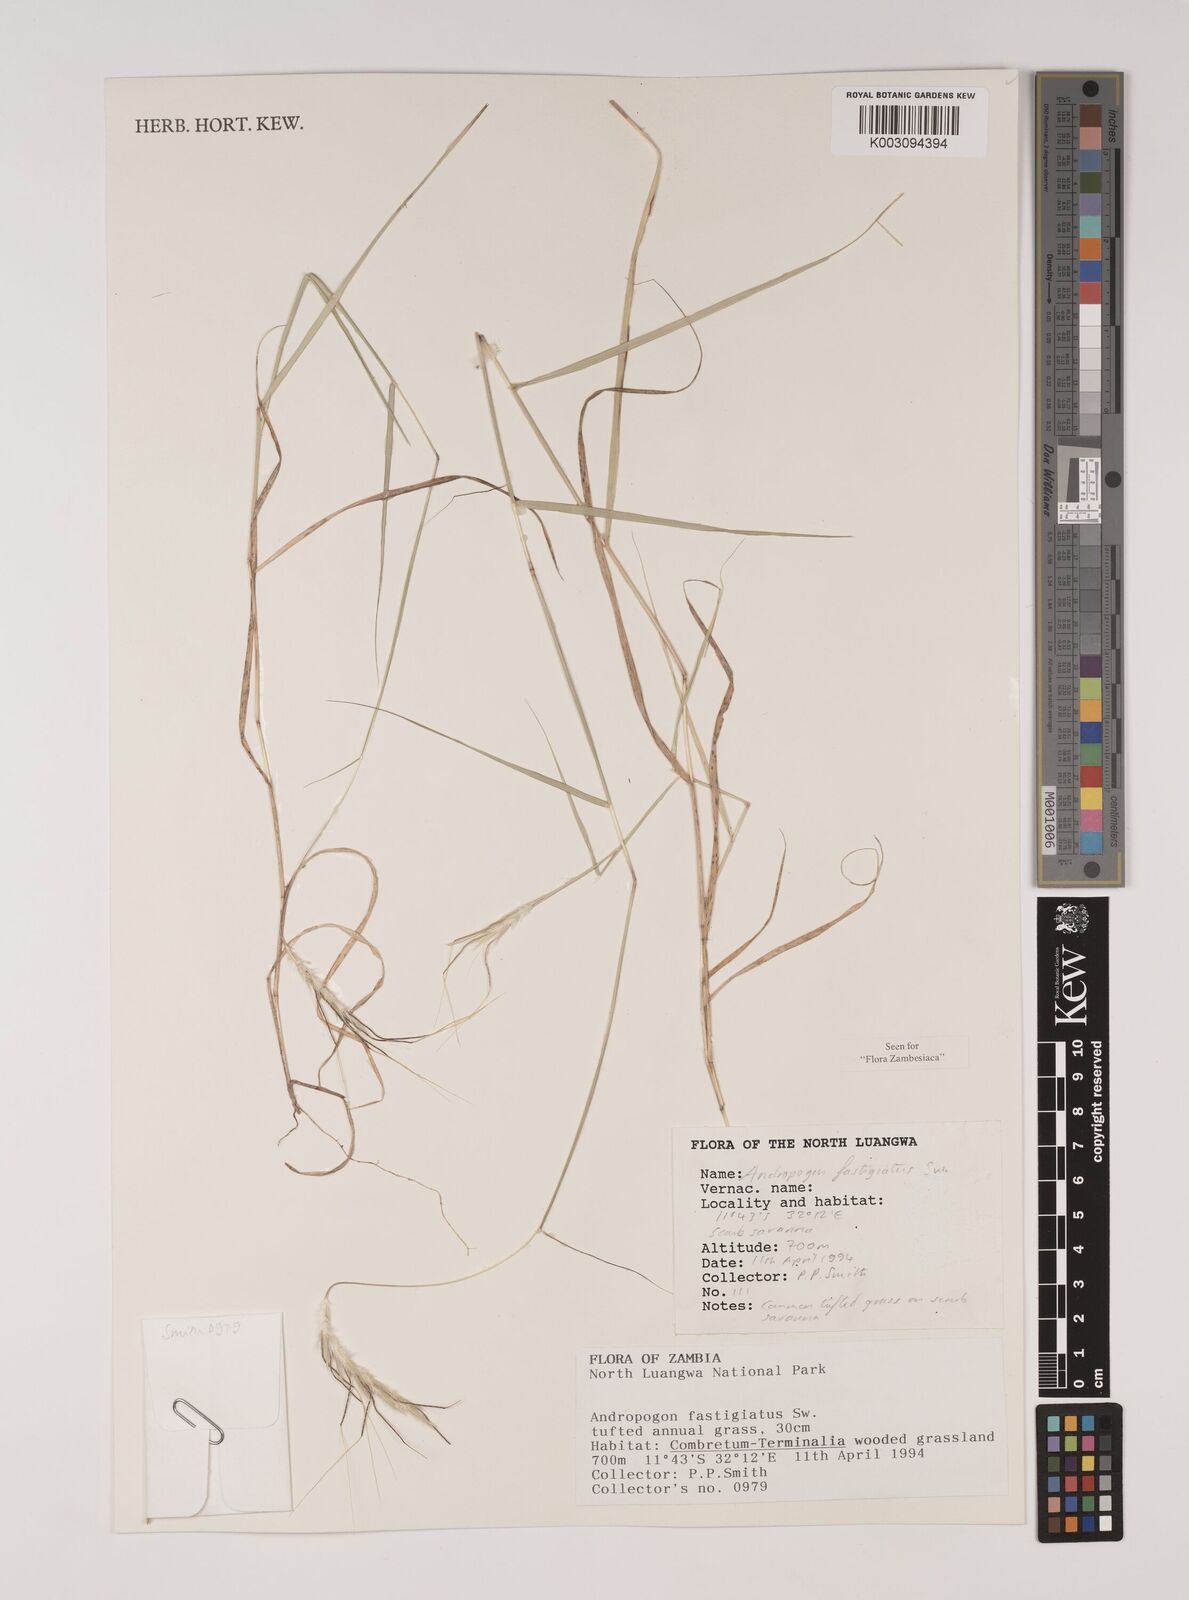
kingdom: Plantae
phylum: Tracheophyta
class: Liliopsida
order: Poales
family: Poaceae
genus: Diectomis
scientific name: Diectomis fastigiata
